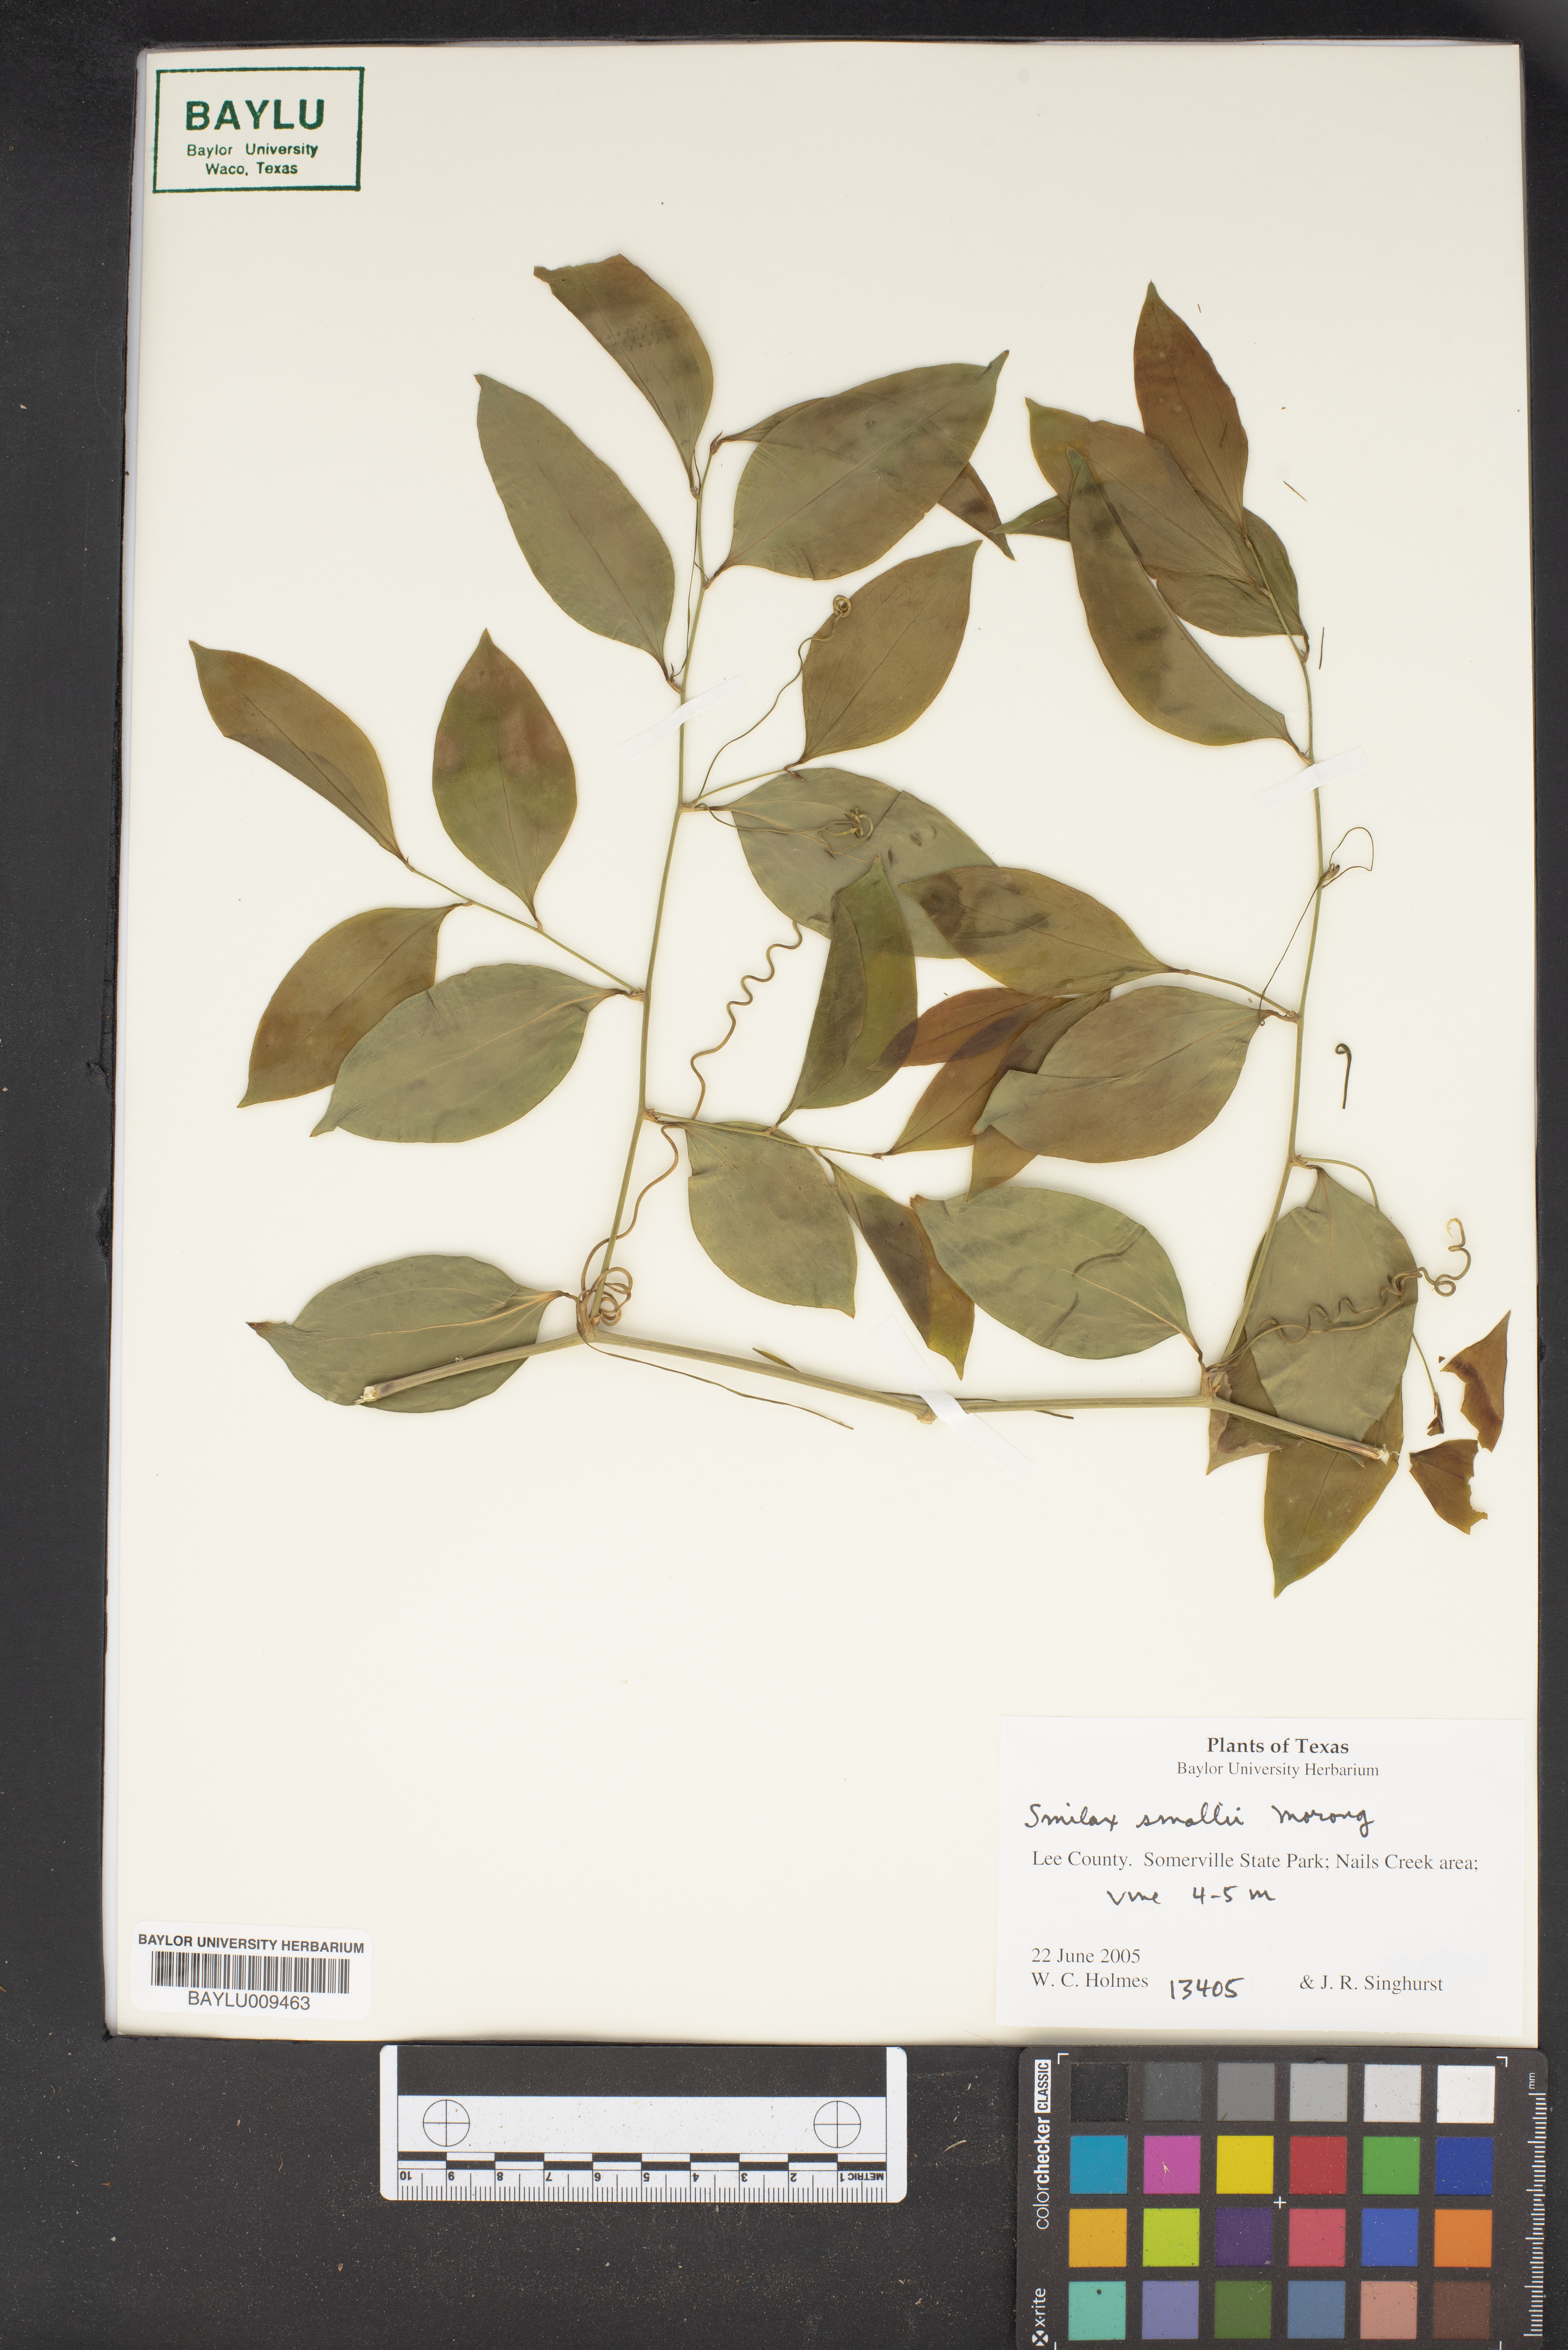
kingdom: Plantae
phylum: Tracheophyta
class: Liliopsida
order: Liliales
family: Smilacaceae
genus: Smilax
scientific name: Smilax maritima
